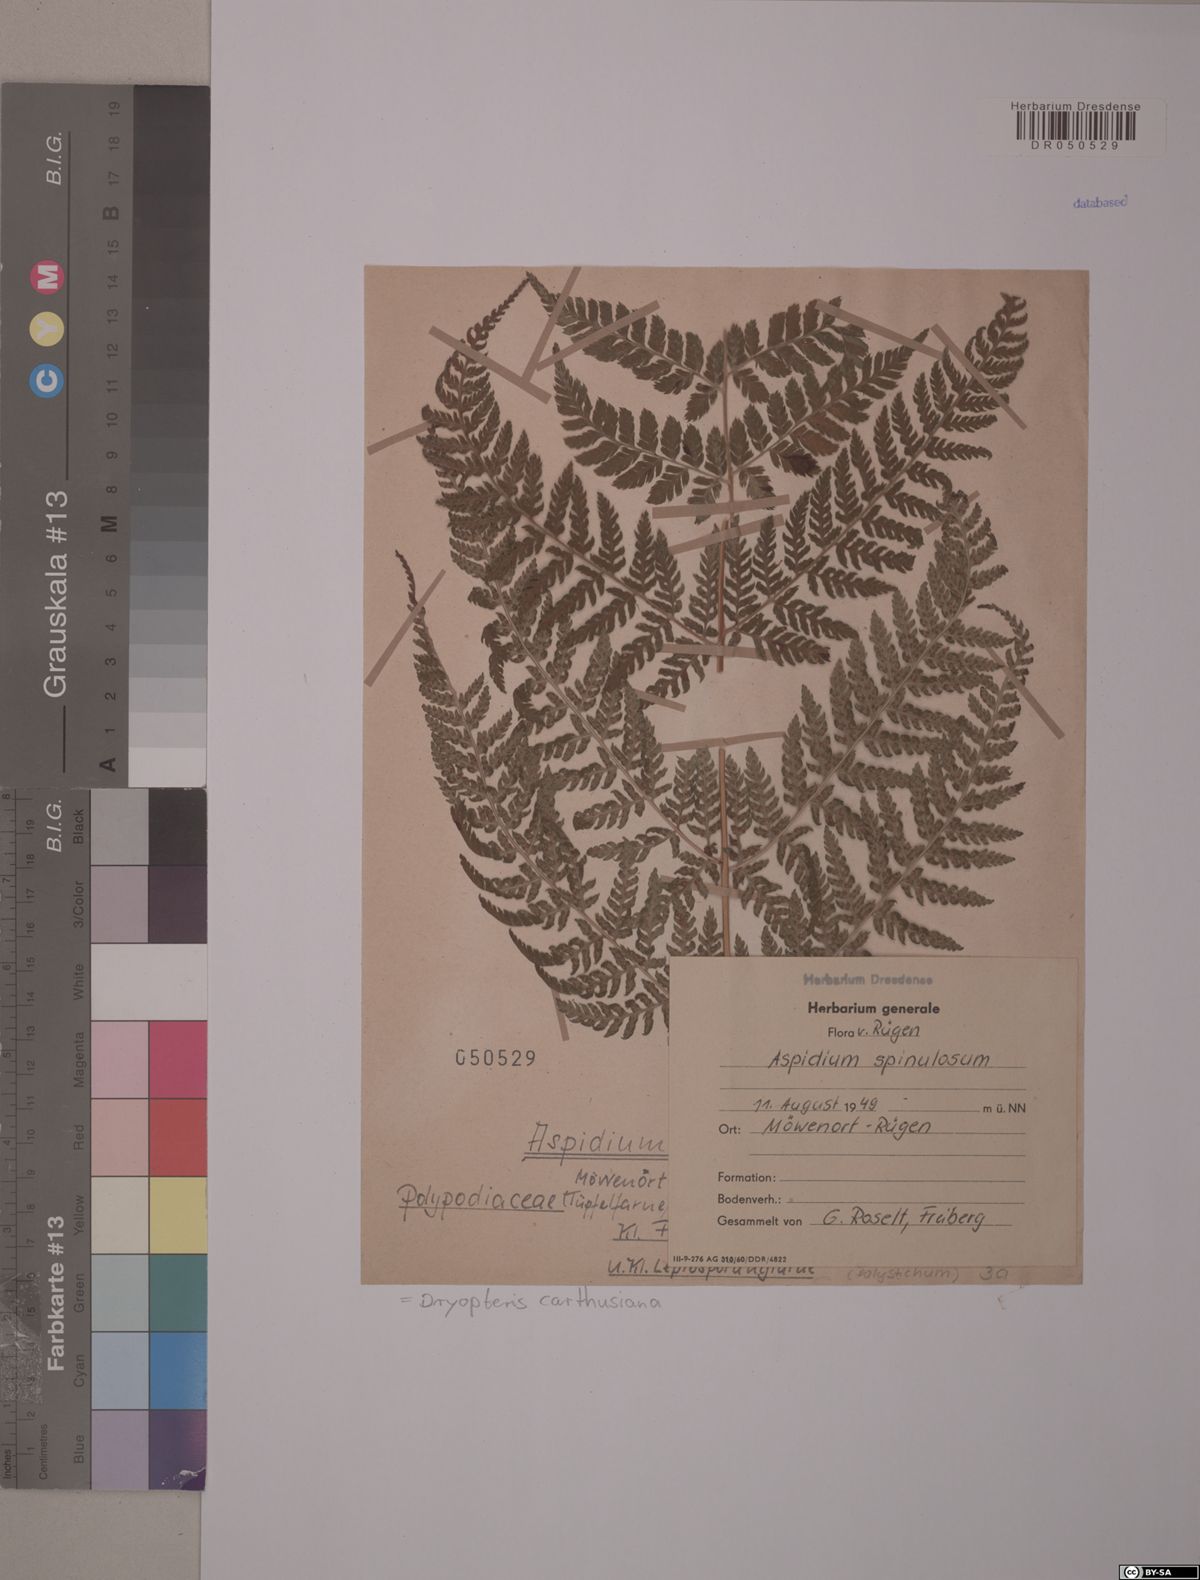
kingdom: Plantae
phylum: Tracheophyta
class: Polypodiopsida
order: Polypodiales
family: Dryopteridaceae
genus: Dryopteris
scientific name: Dryopteris carthusiana
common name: Narrow buckler-fern
